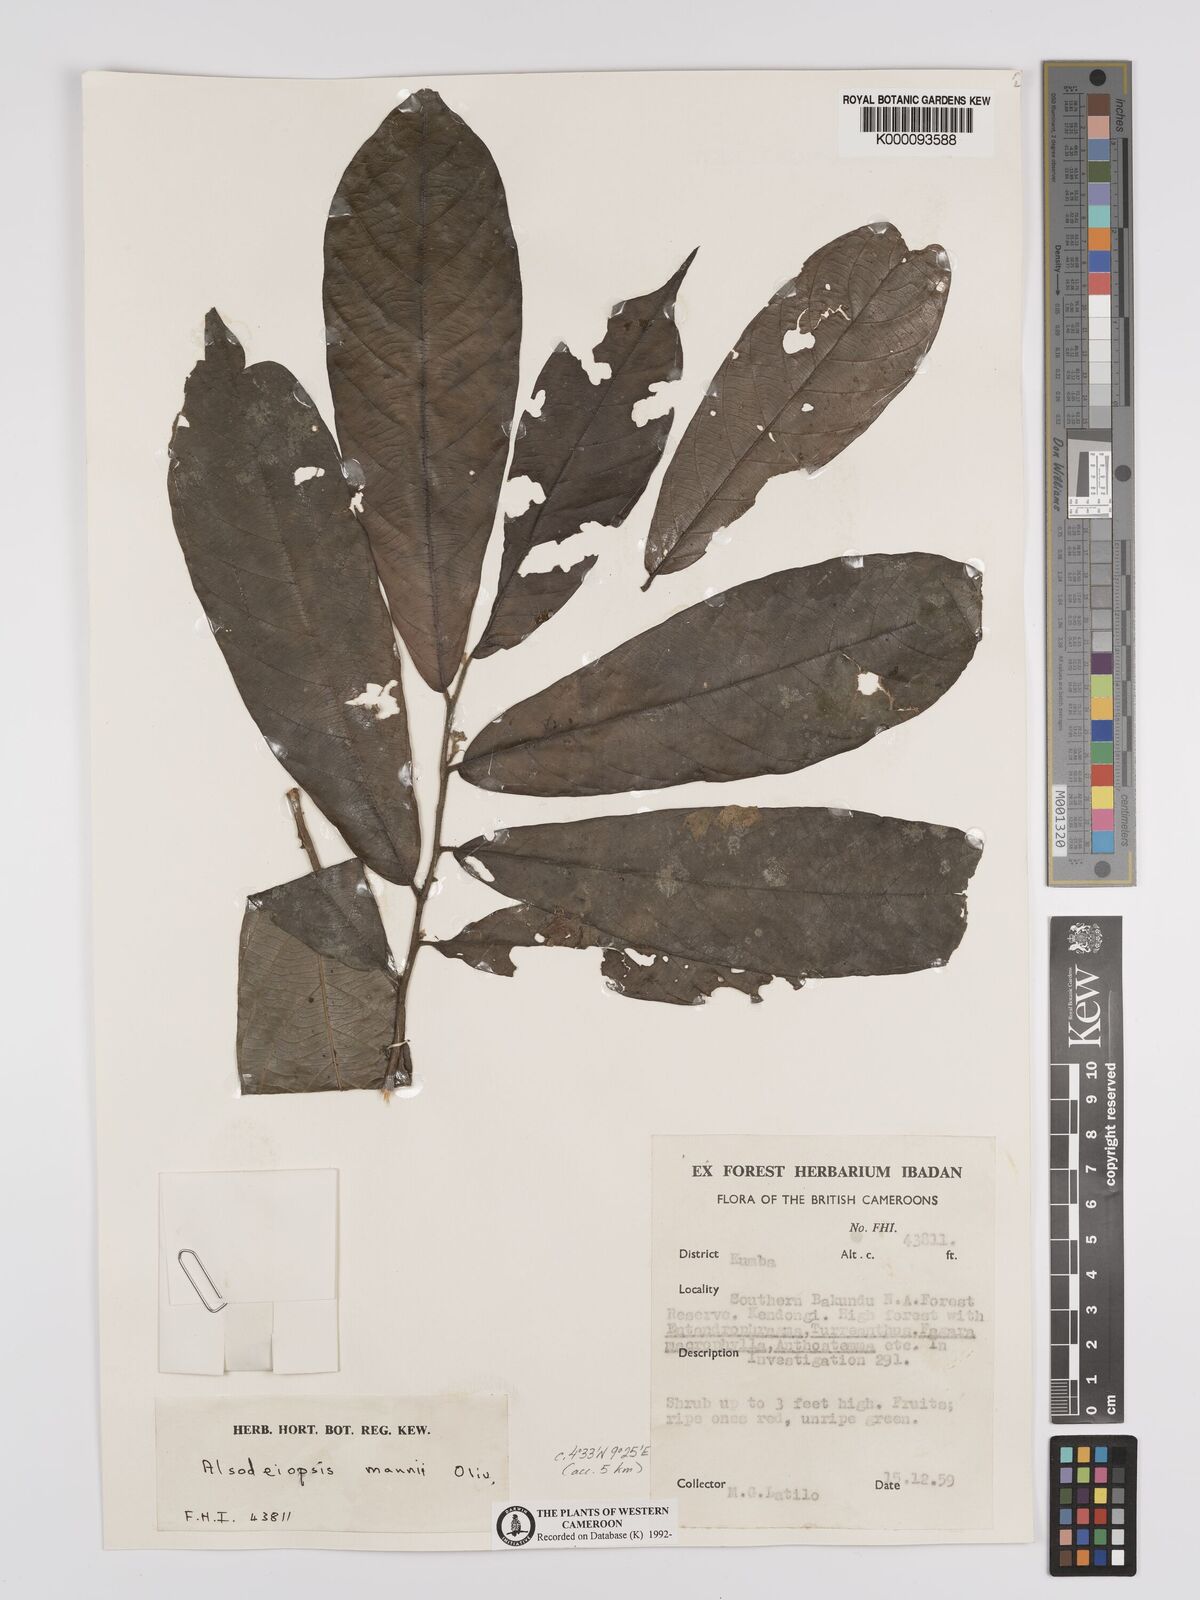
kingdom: Plantae
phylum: Tracheophyta
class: Magnoliopsida
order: Icacinales
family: Icacinaceae
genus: Alsodeiopsis
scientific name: Alsodeiopsis mannii
